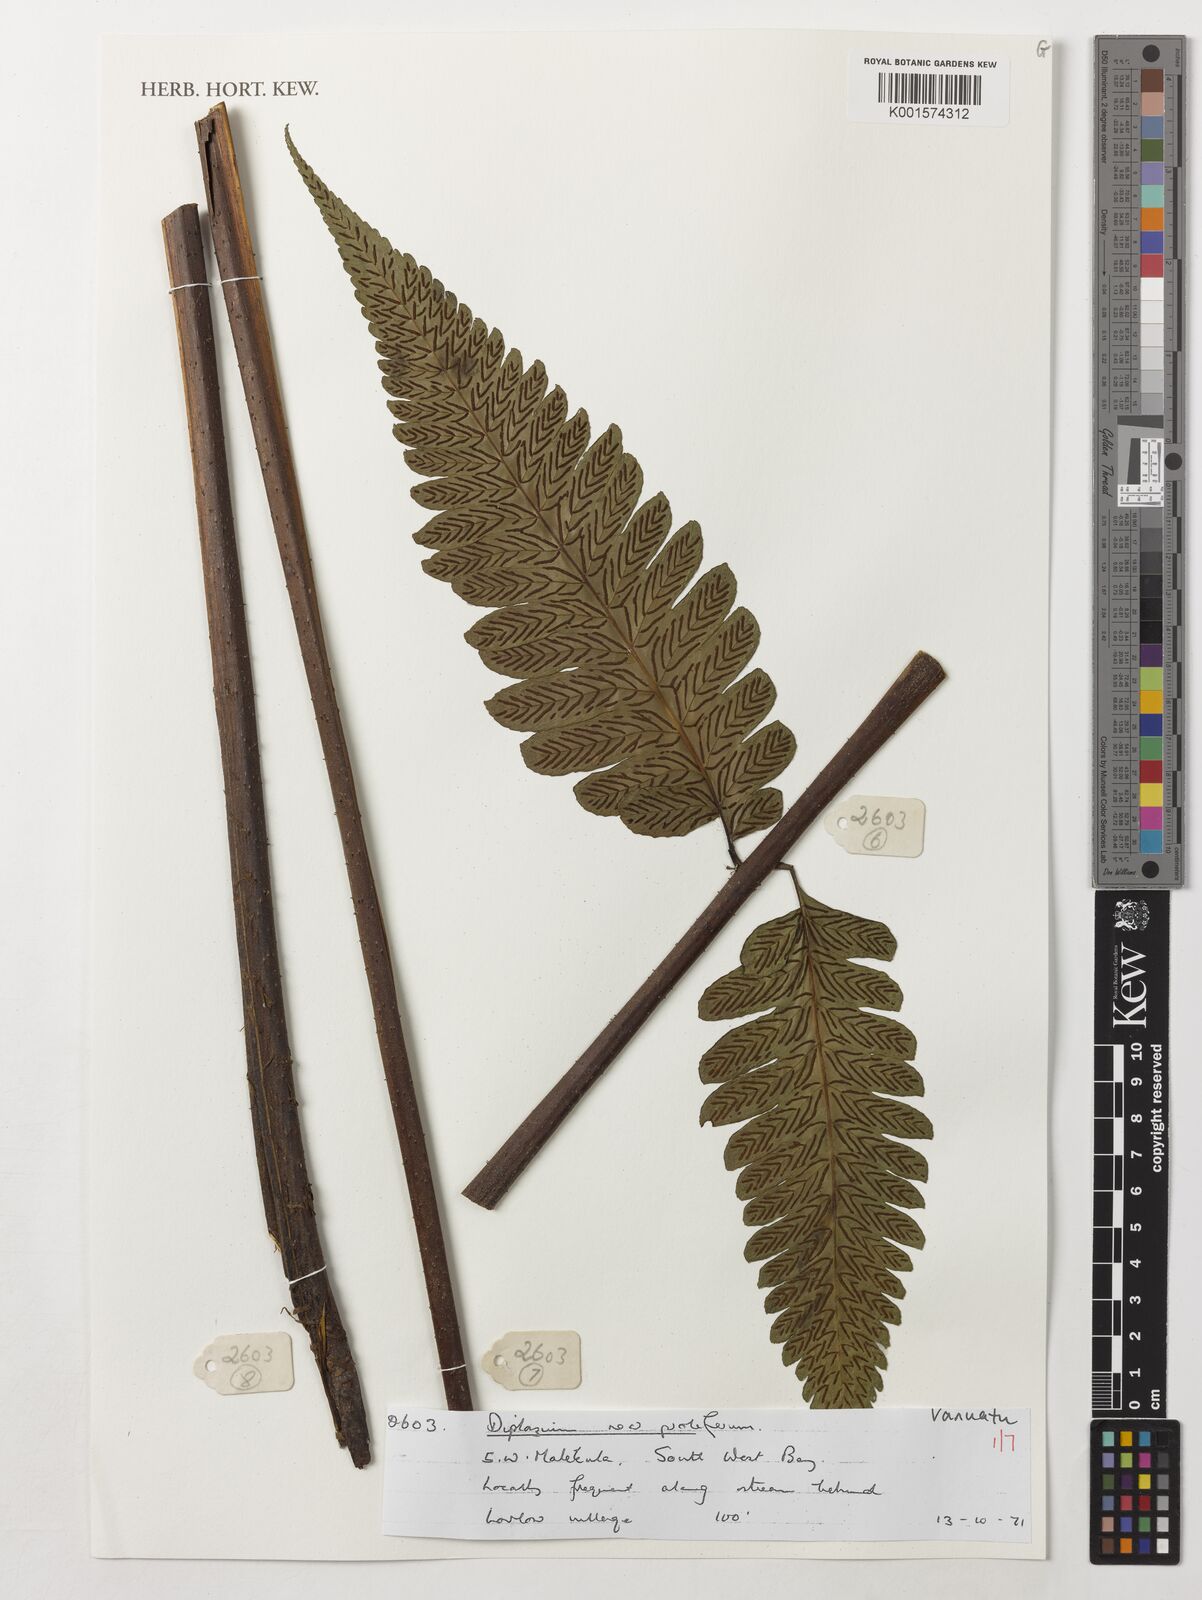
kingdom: Plantae
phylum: Tracheophyta
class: Polypodiopsida
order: Polypodiales
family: Athyriaceae
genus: Diplazium
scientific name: Diplazium proliferum
